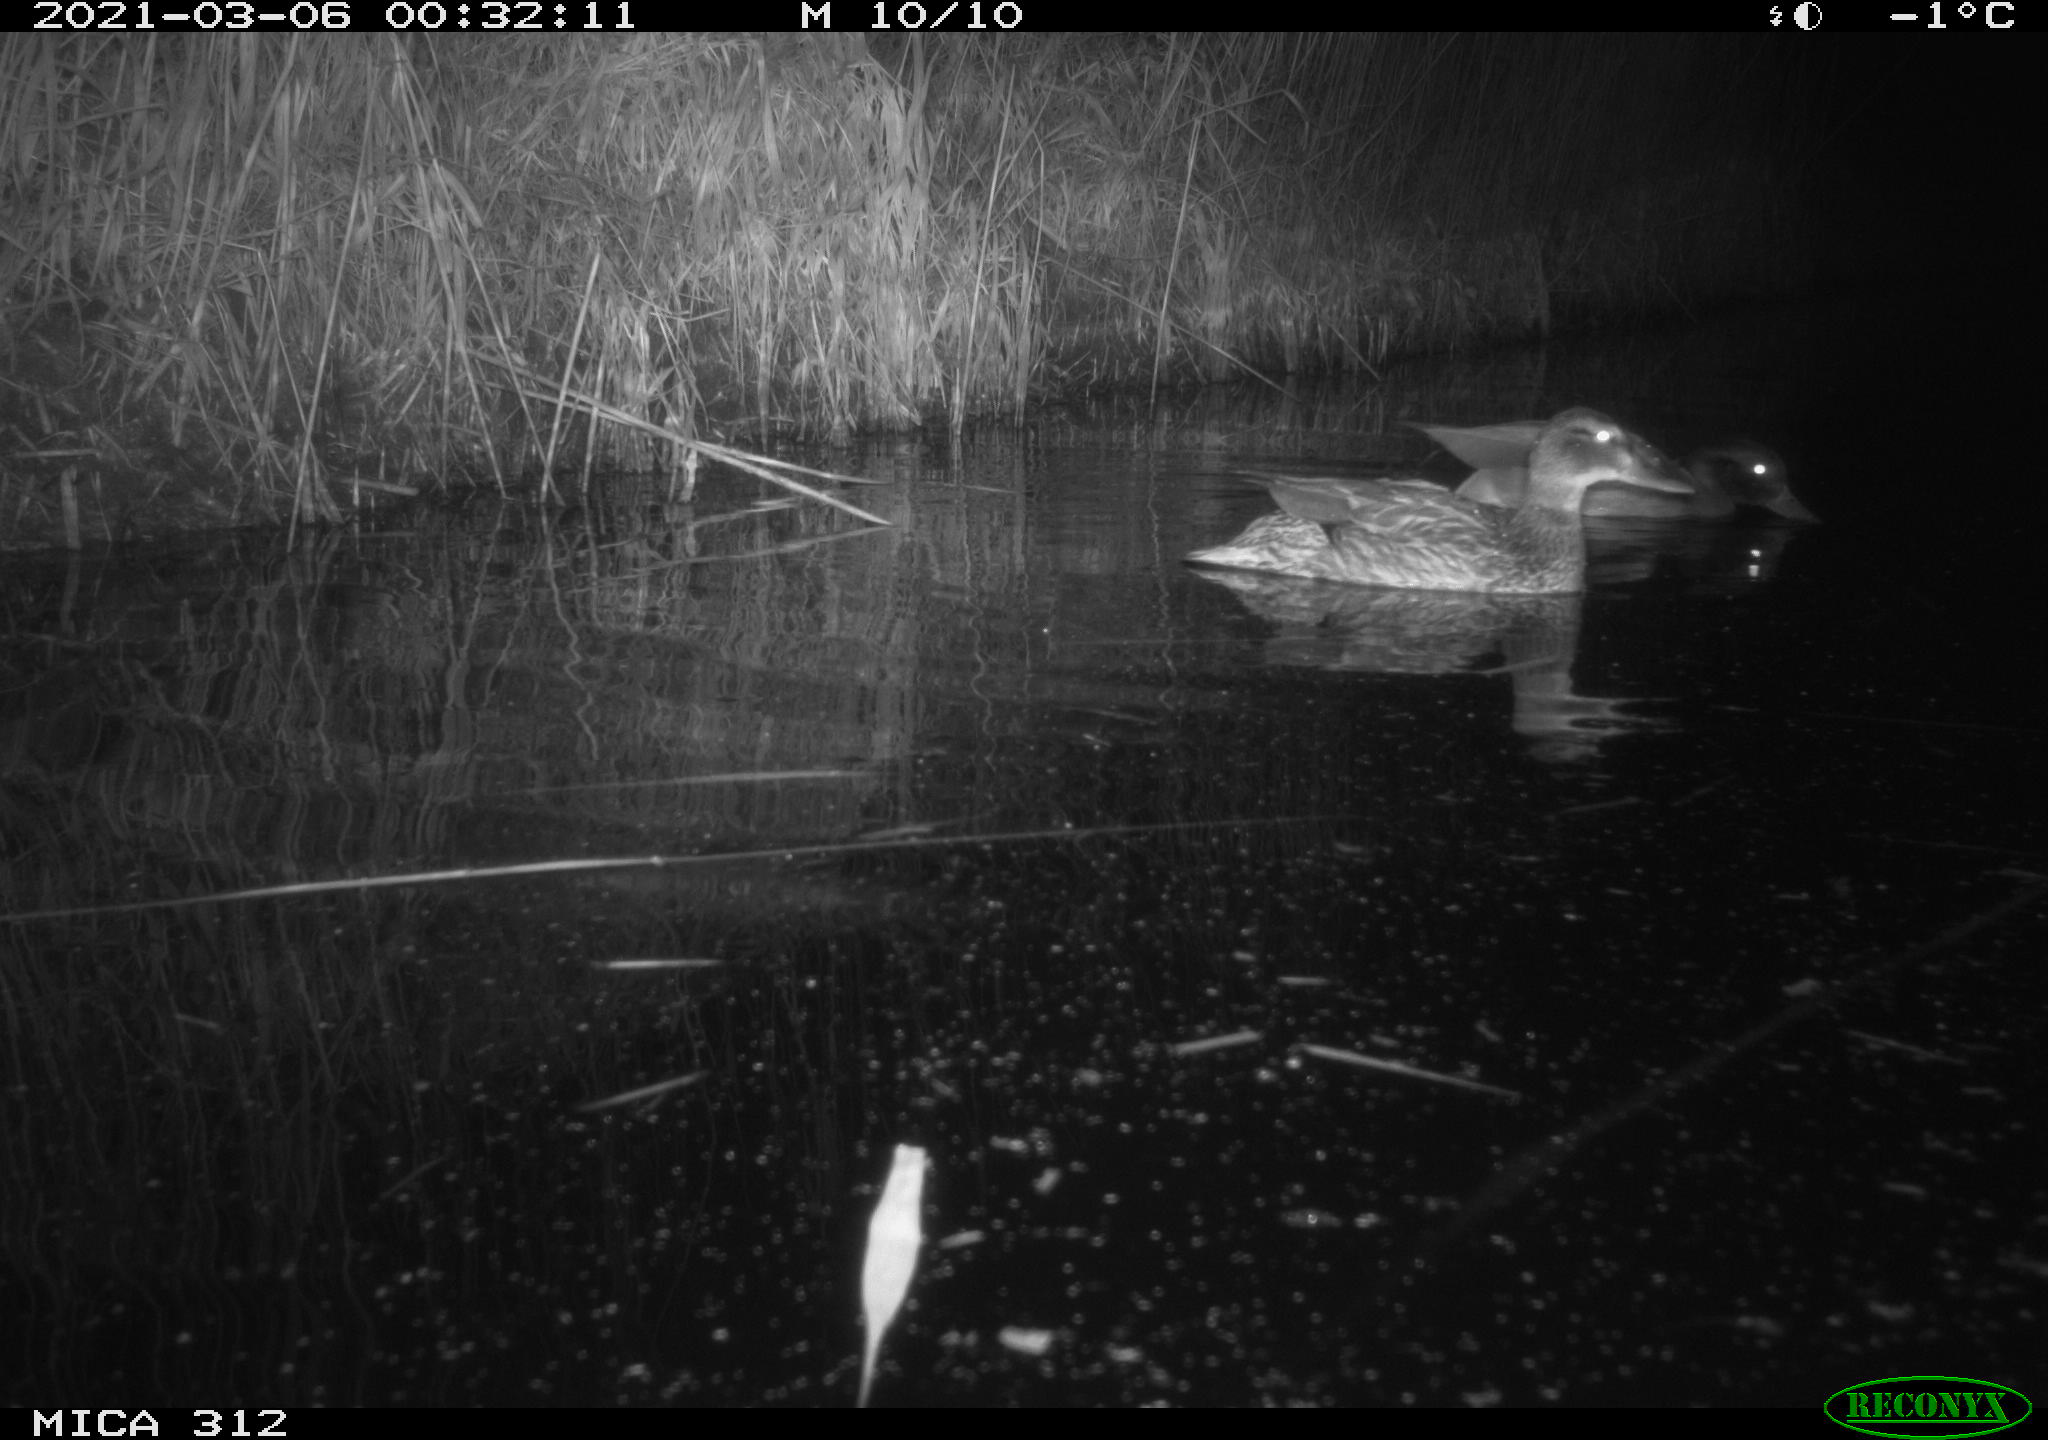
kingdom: Animalia
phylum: Chordata
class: Aves
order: Anseriformes
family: Anatidae
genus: Anas
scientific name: Anas platyrhynchos
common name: Mallard
